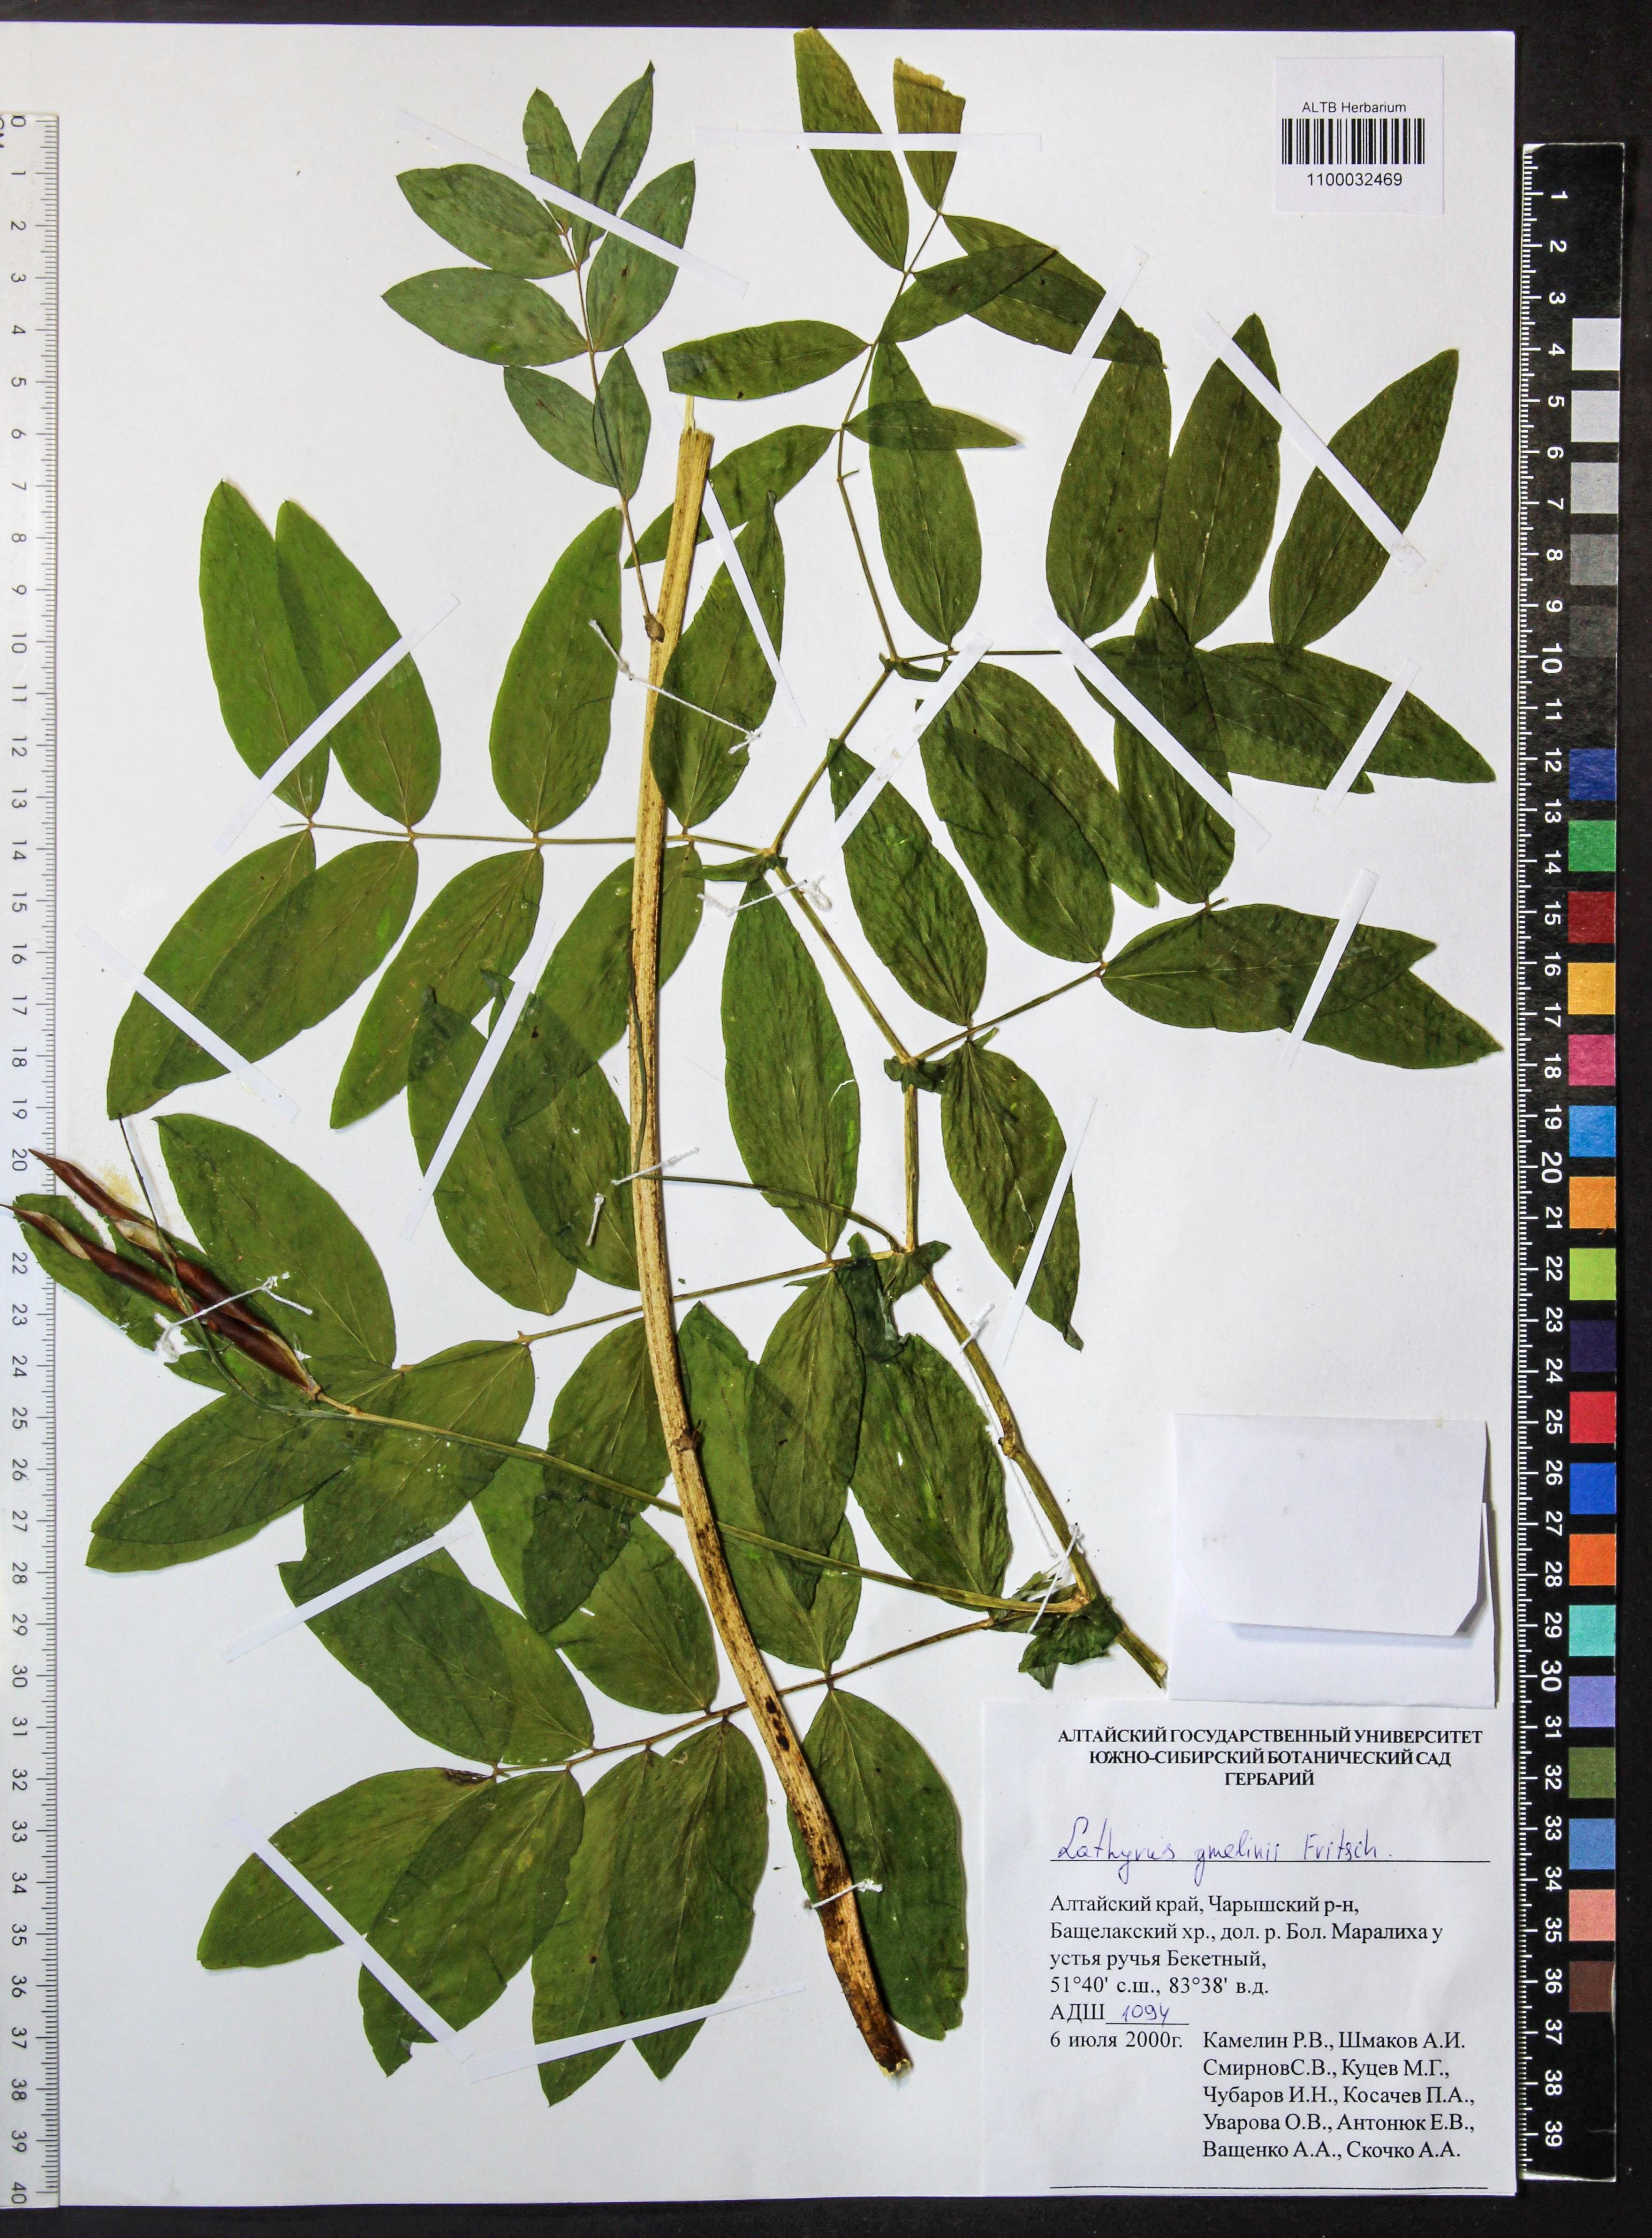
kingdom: Plantae
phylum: Tracheophyta
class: Magnoliopsida
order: Fabales
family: Fabaceae
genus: Lathyrus
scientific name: Lathyrus gmelinii
